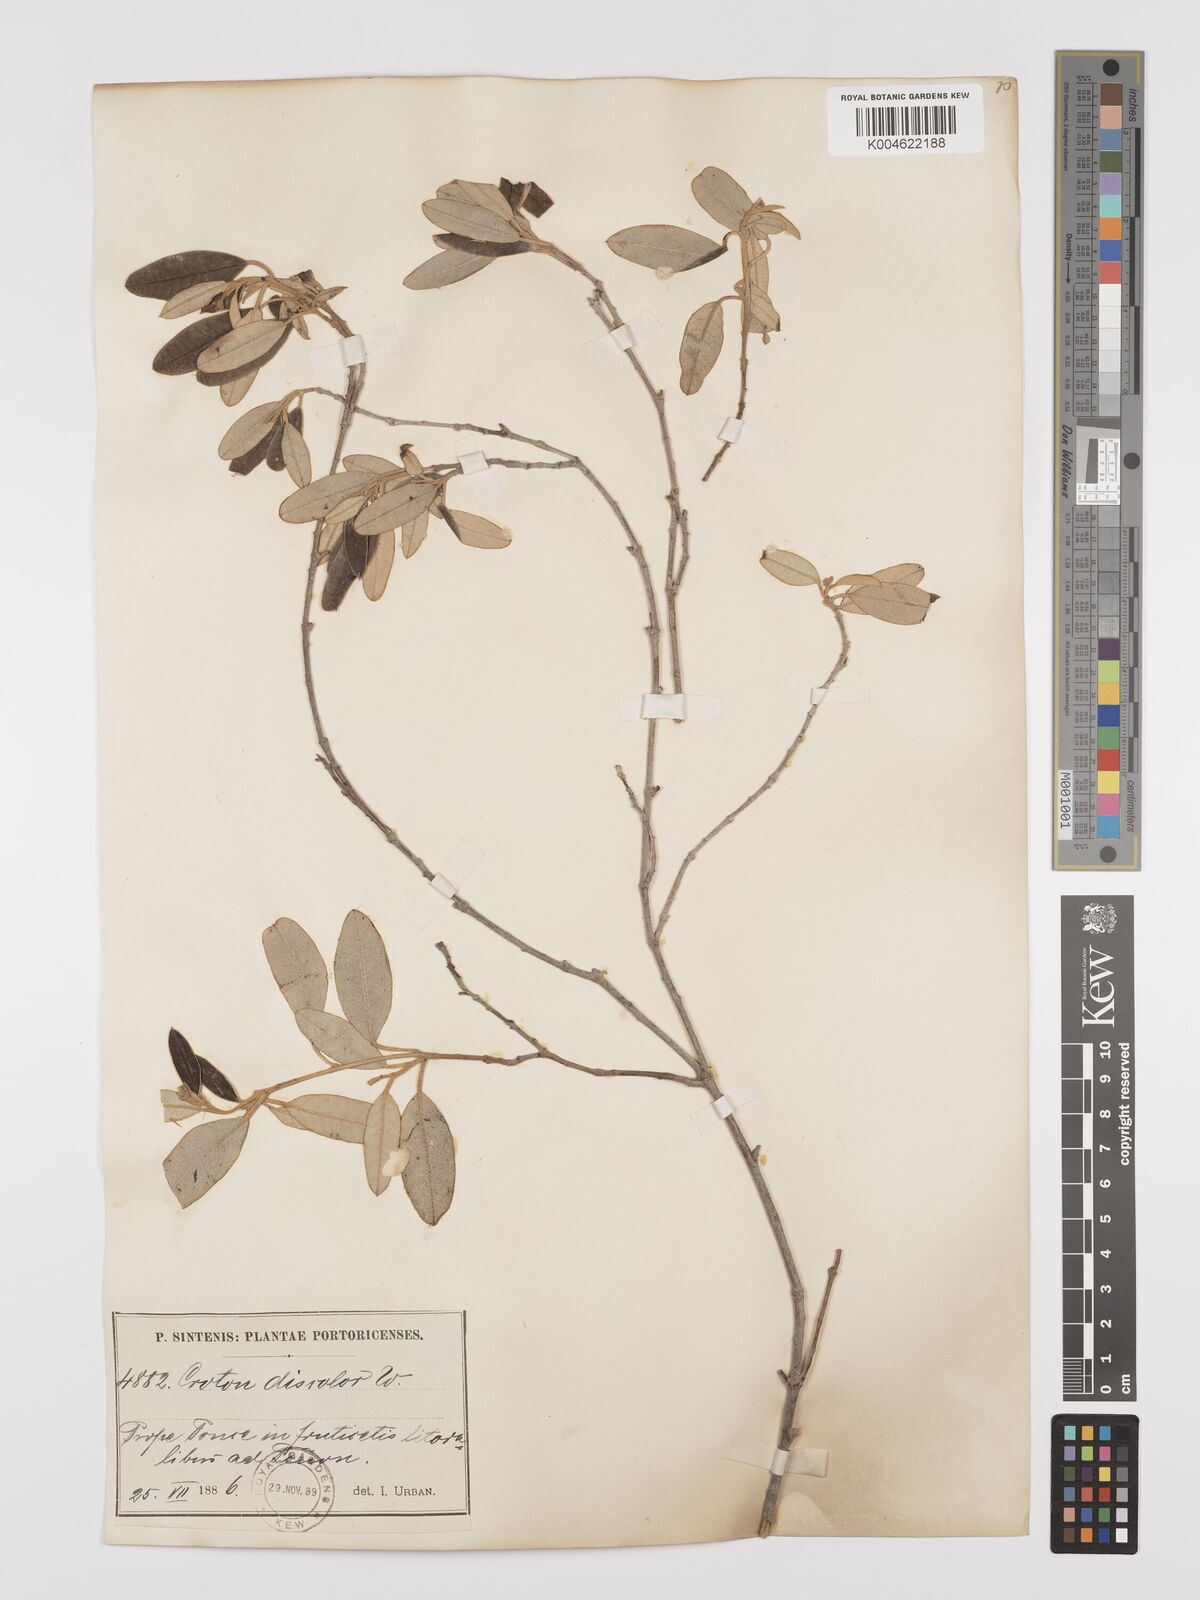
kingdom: Plantae
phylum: Tracheophyta
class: Magnoliopsida
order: Malpighiales
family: Euphorbiaceae
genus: Croton
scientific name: Croton
